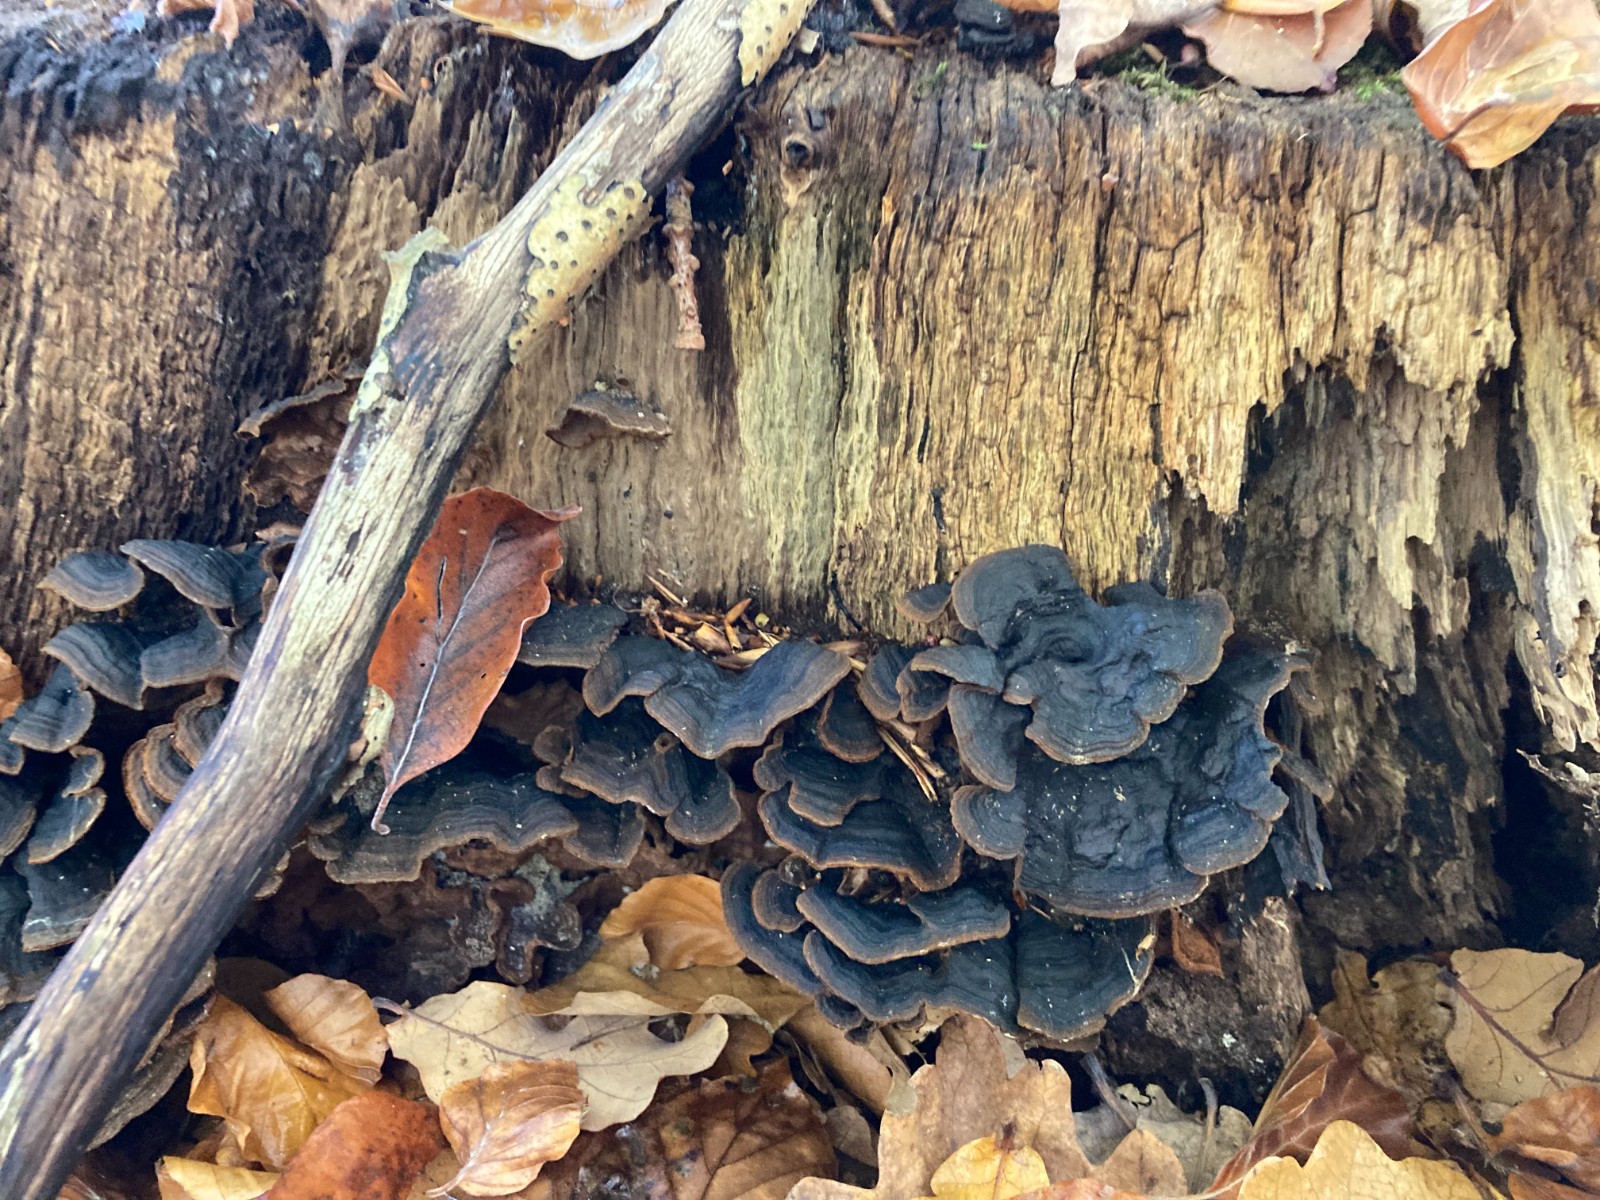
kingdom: Fungi
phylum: Basidiomycota
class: Agaricomycetes
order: Hymenochaetales
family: Hymenochaetaceae
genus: Hymenochaete
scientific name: Hymenochaete rubiginosa
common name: stiv ruslædersvamp
